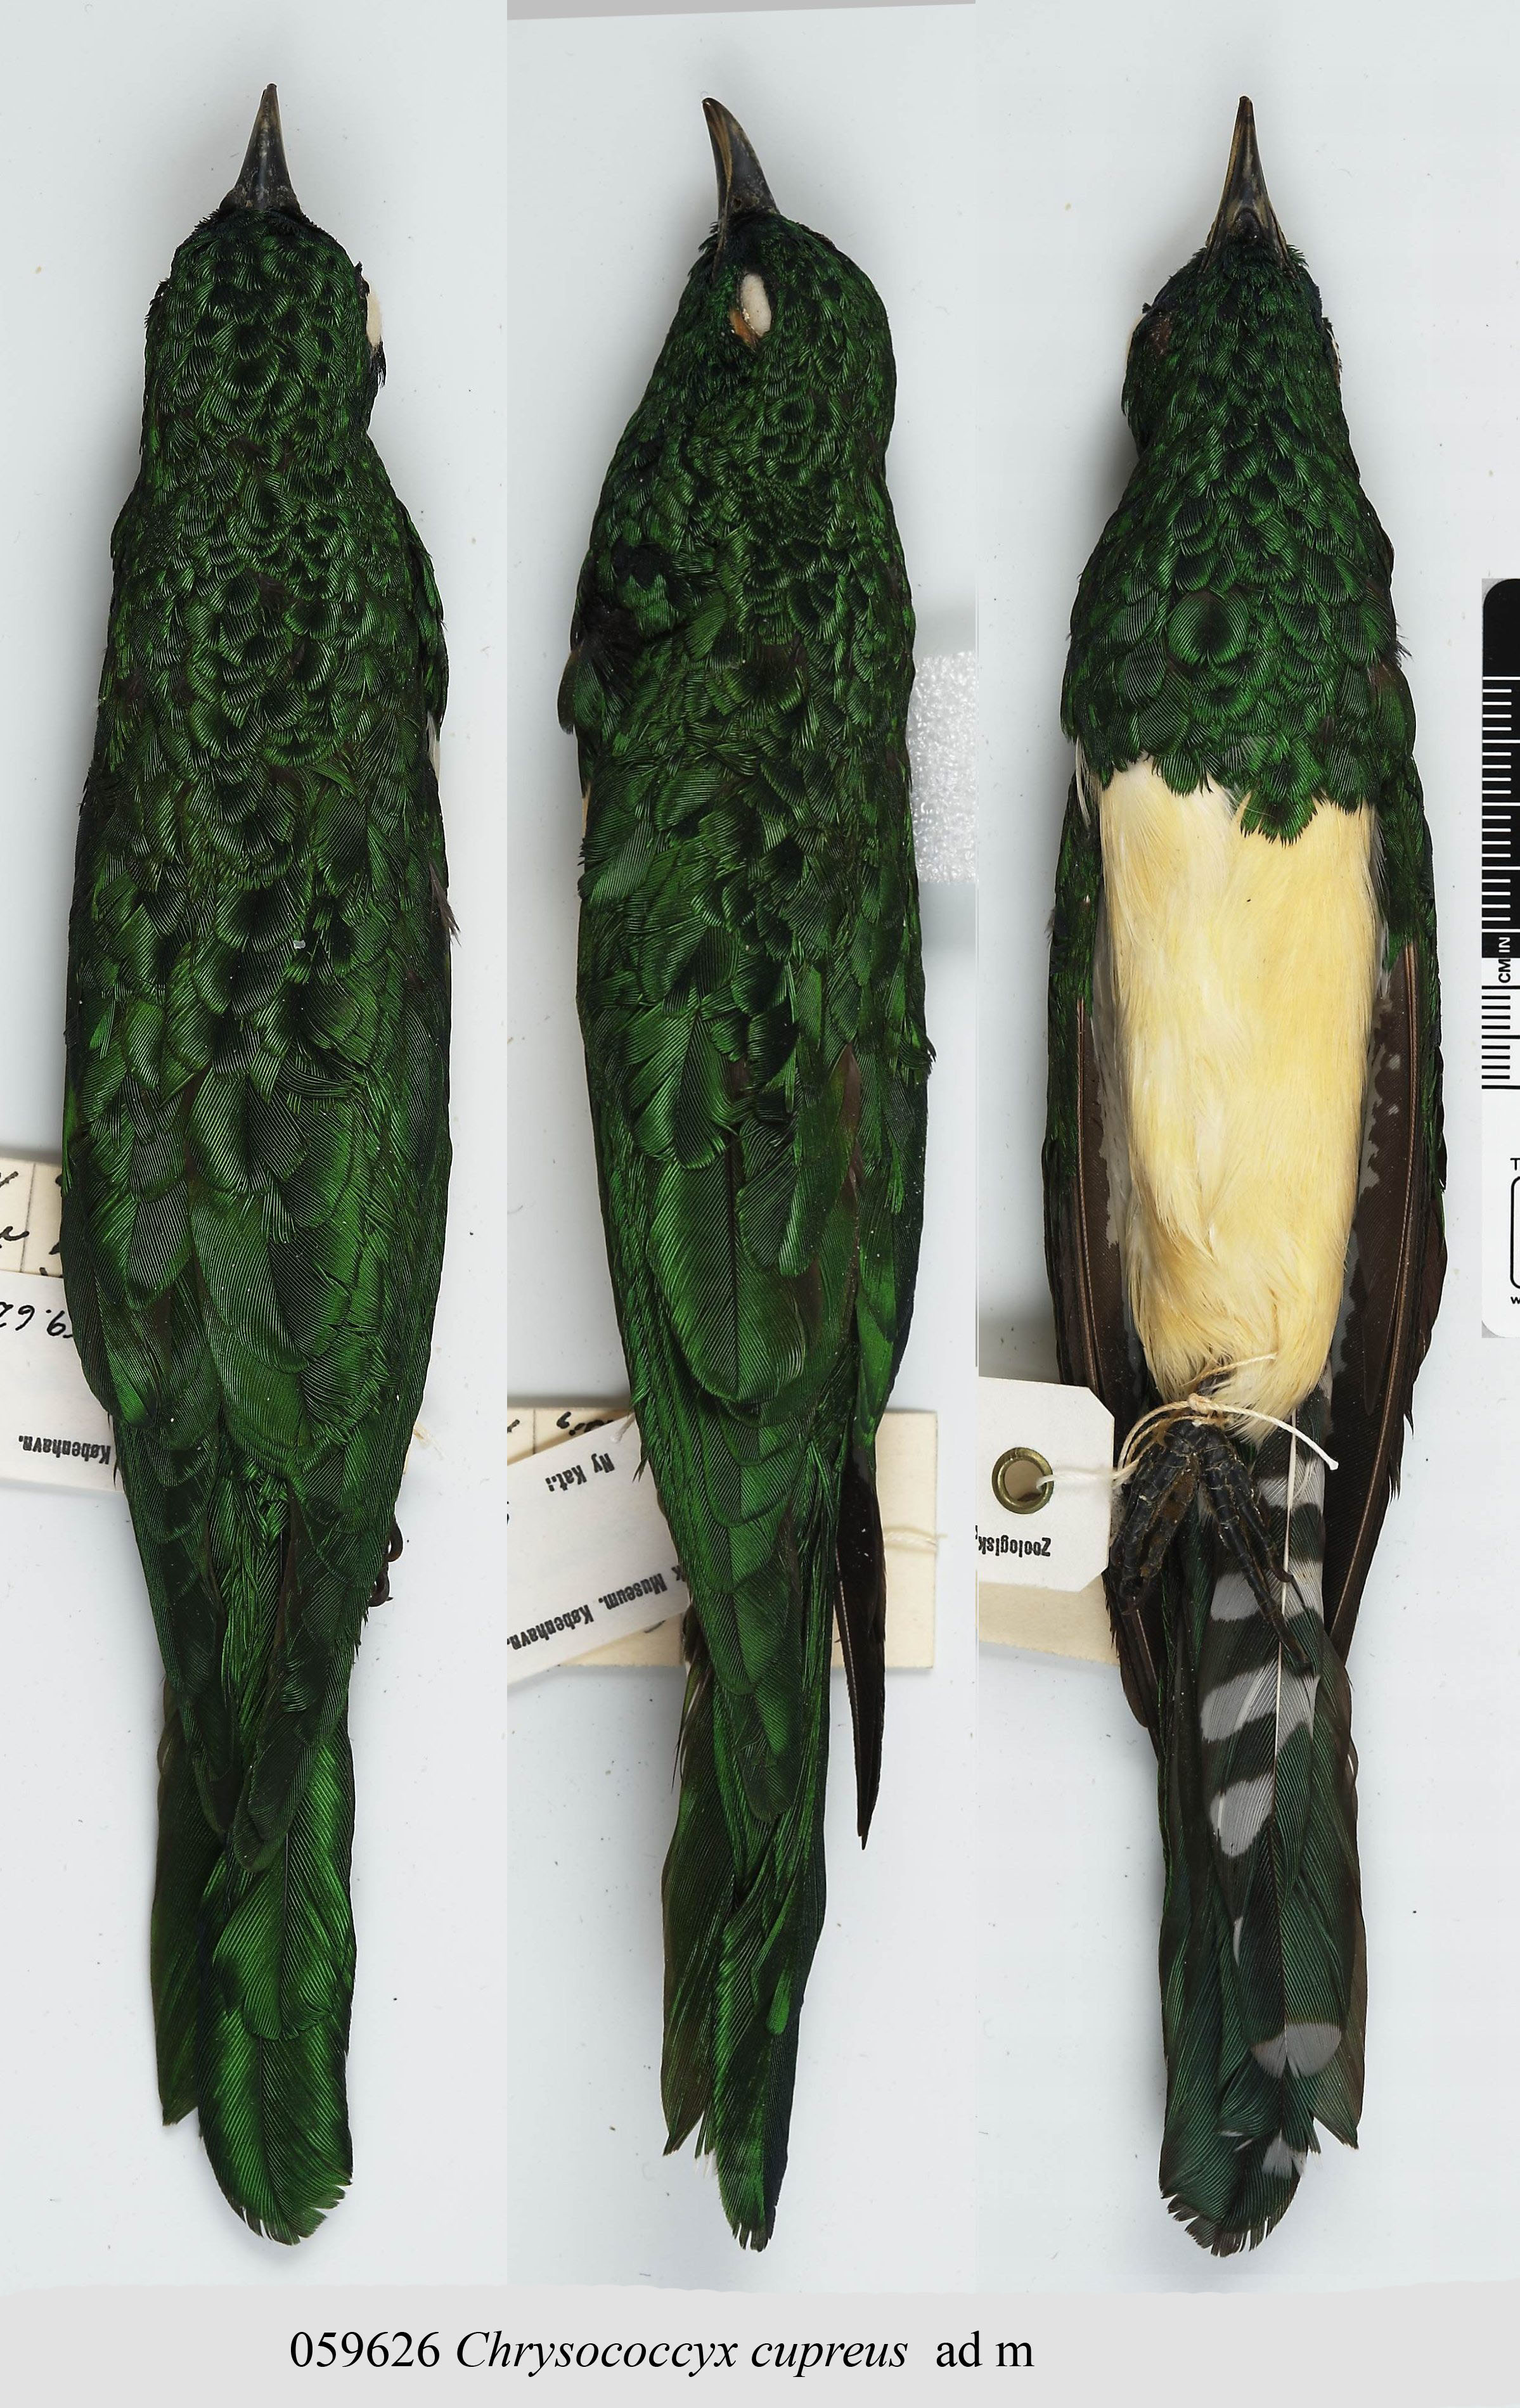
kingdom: Animalia
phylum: Chordata
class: Aves
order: Cuculiformes
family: Cuculidae
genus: Chrysococcyx
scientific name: Chrysococcyx cupreus
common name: African emerald cuckoo
